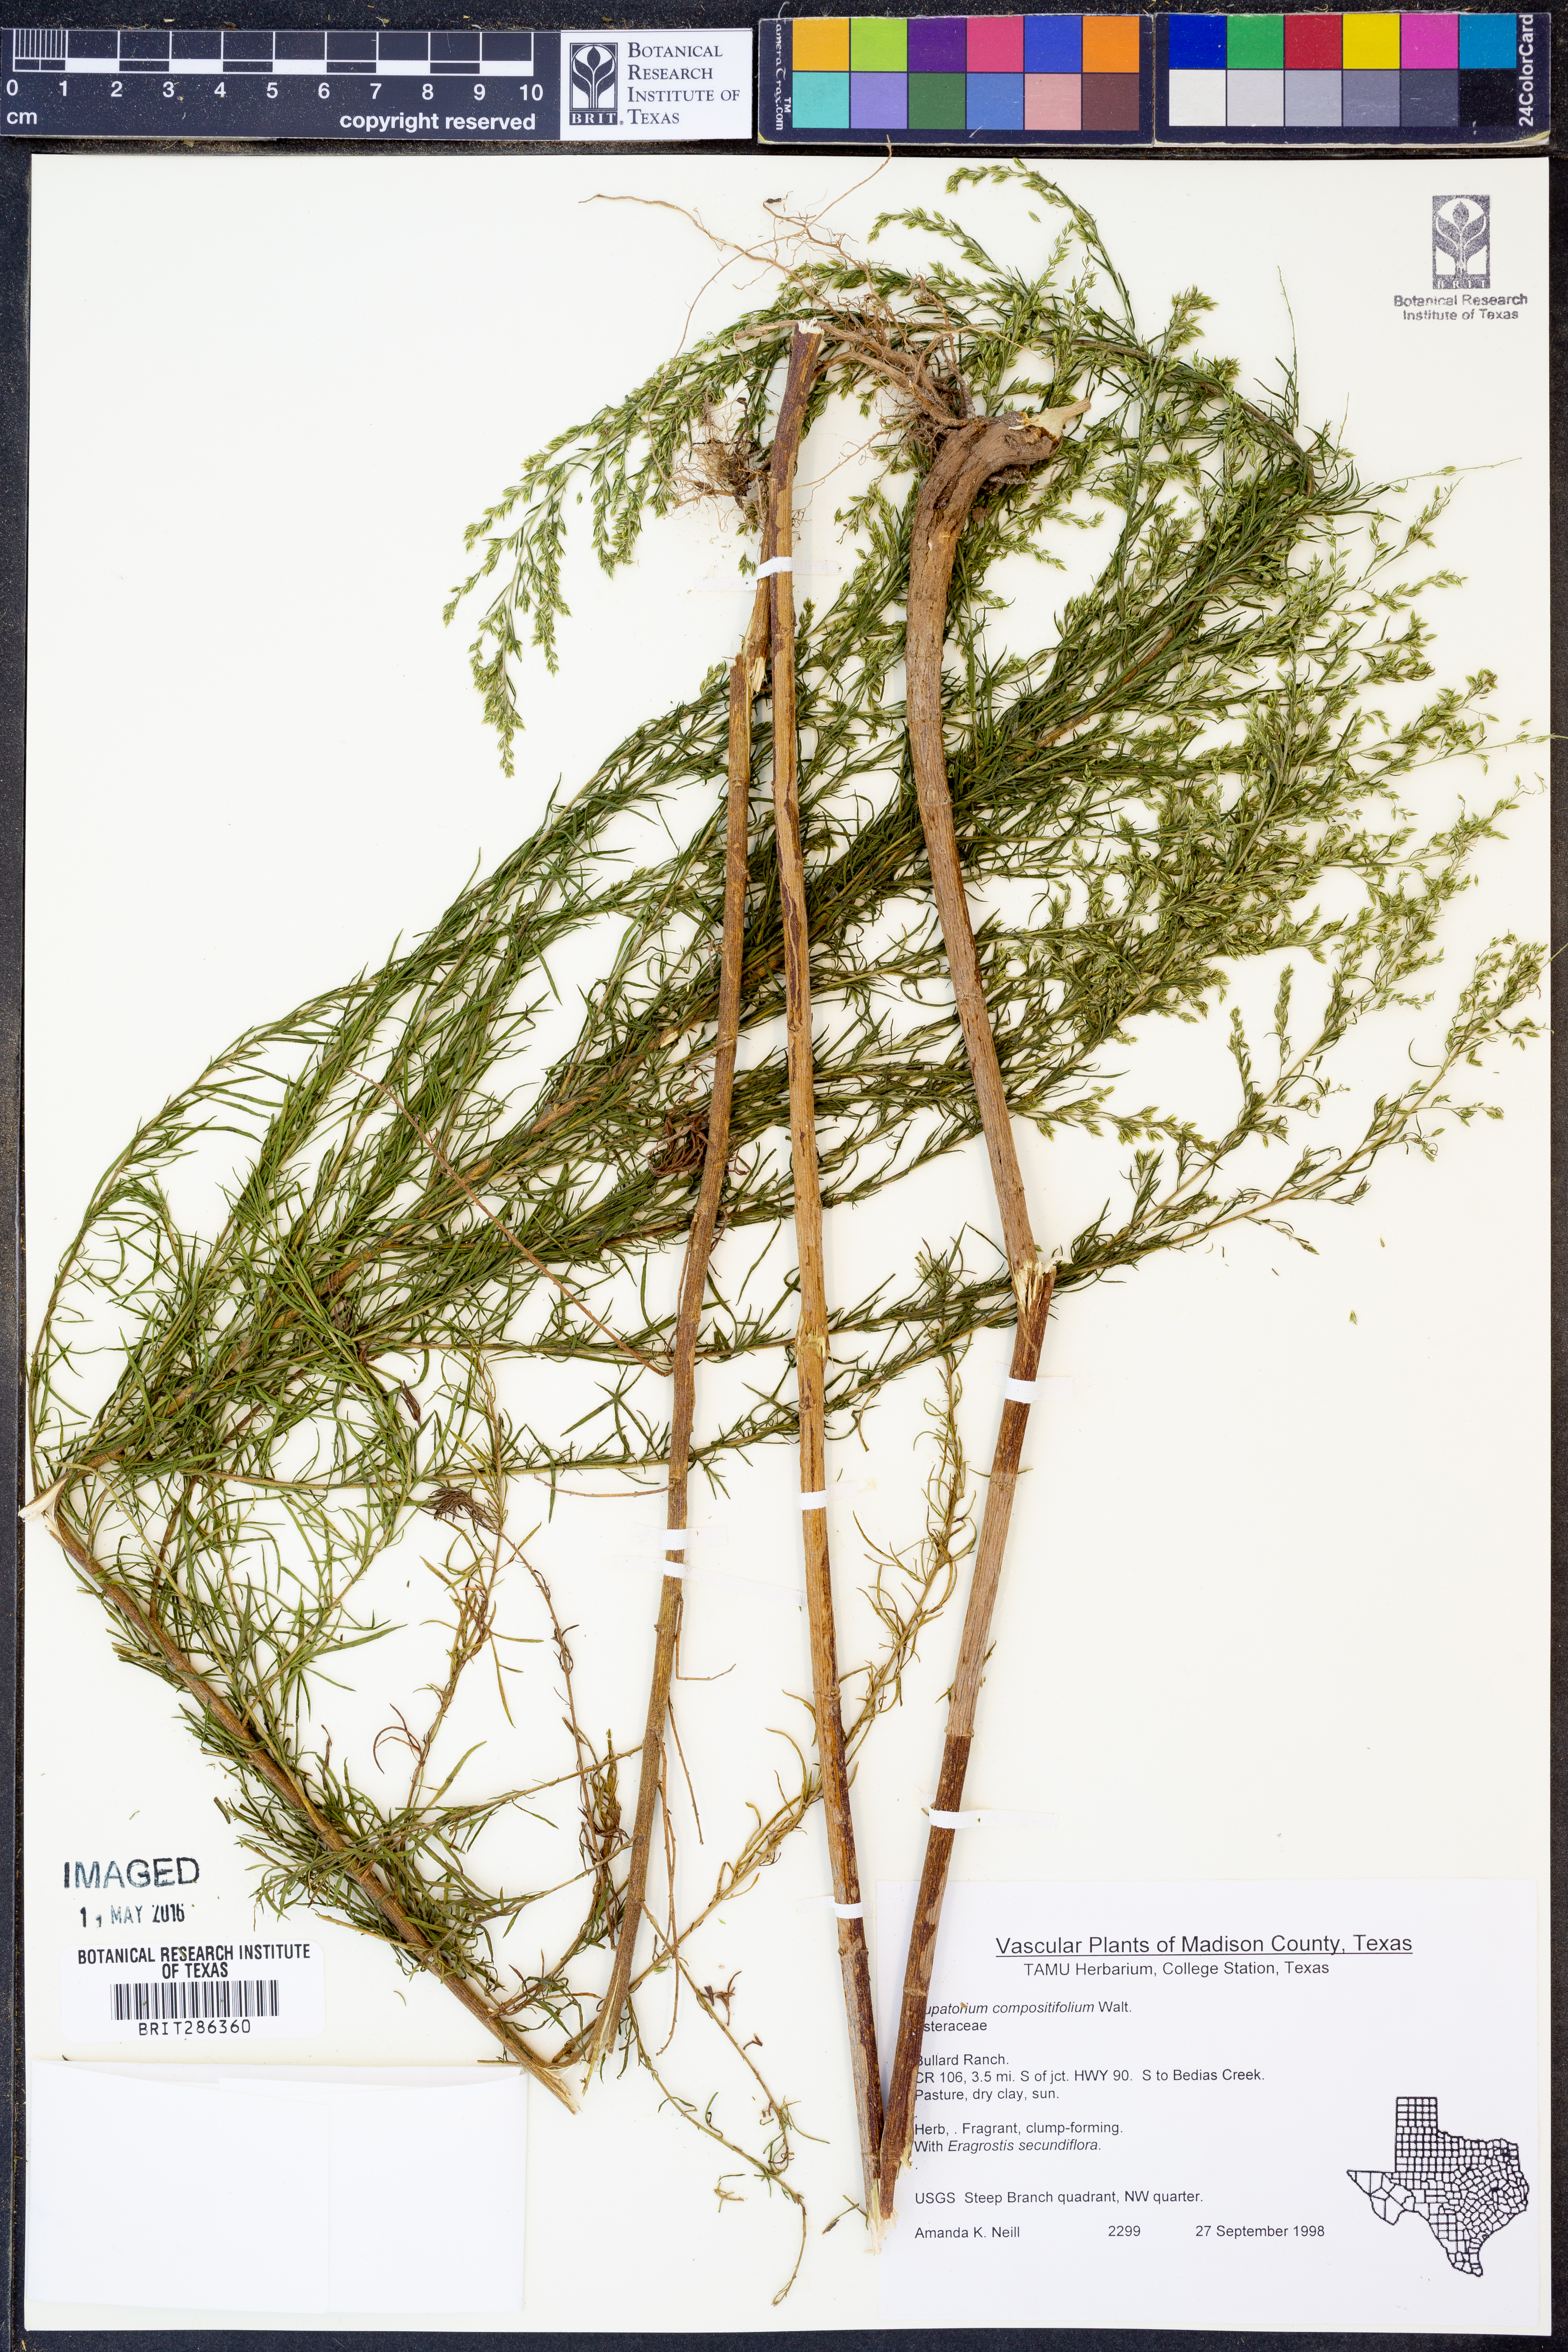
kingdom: Plantae
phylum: Tracheophyta
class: Magnoliopsida
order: Asterales
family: Asteraceae
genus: Eupatorium
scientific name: Eupatorium compositifolium
